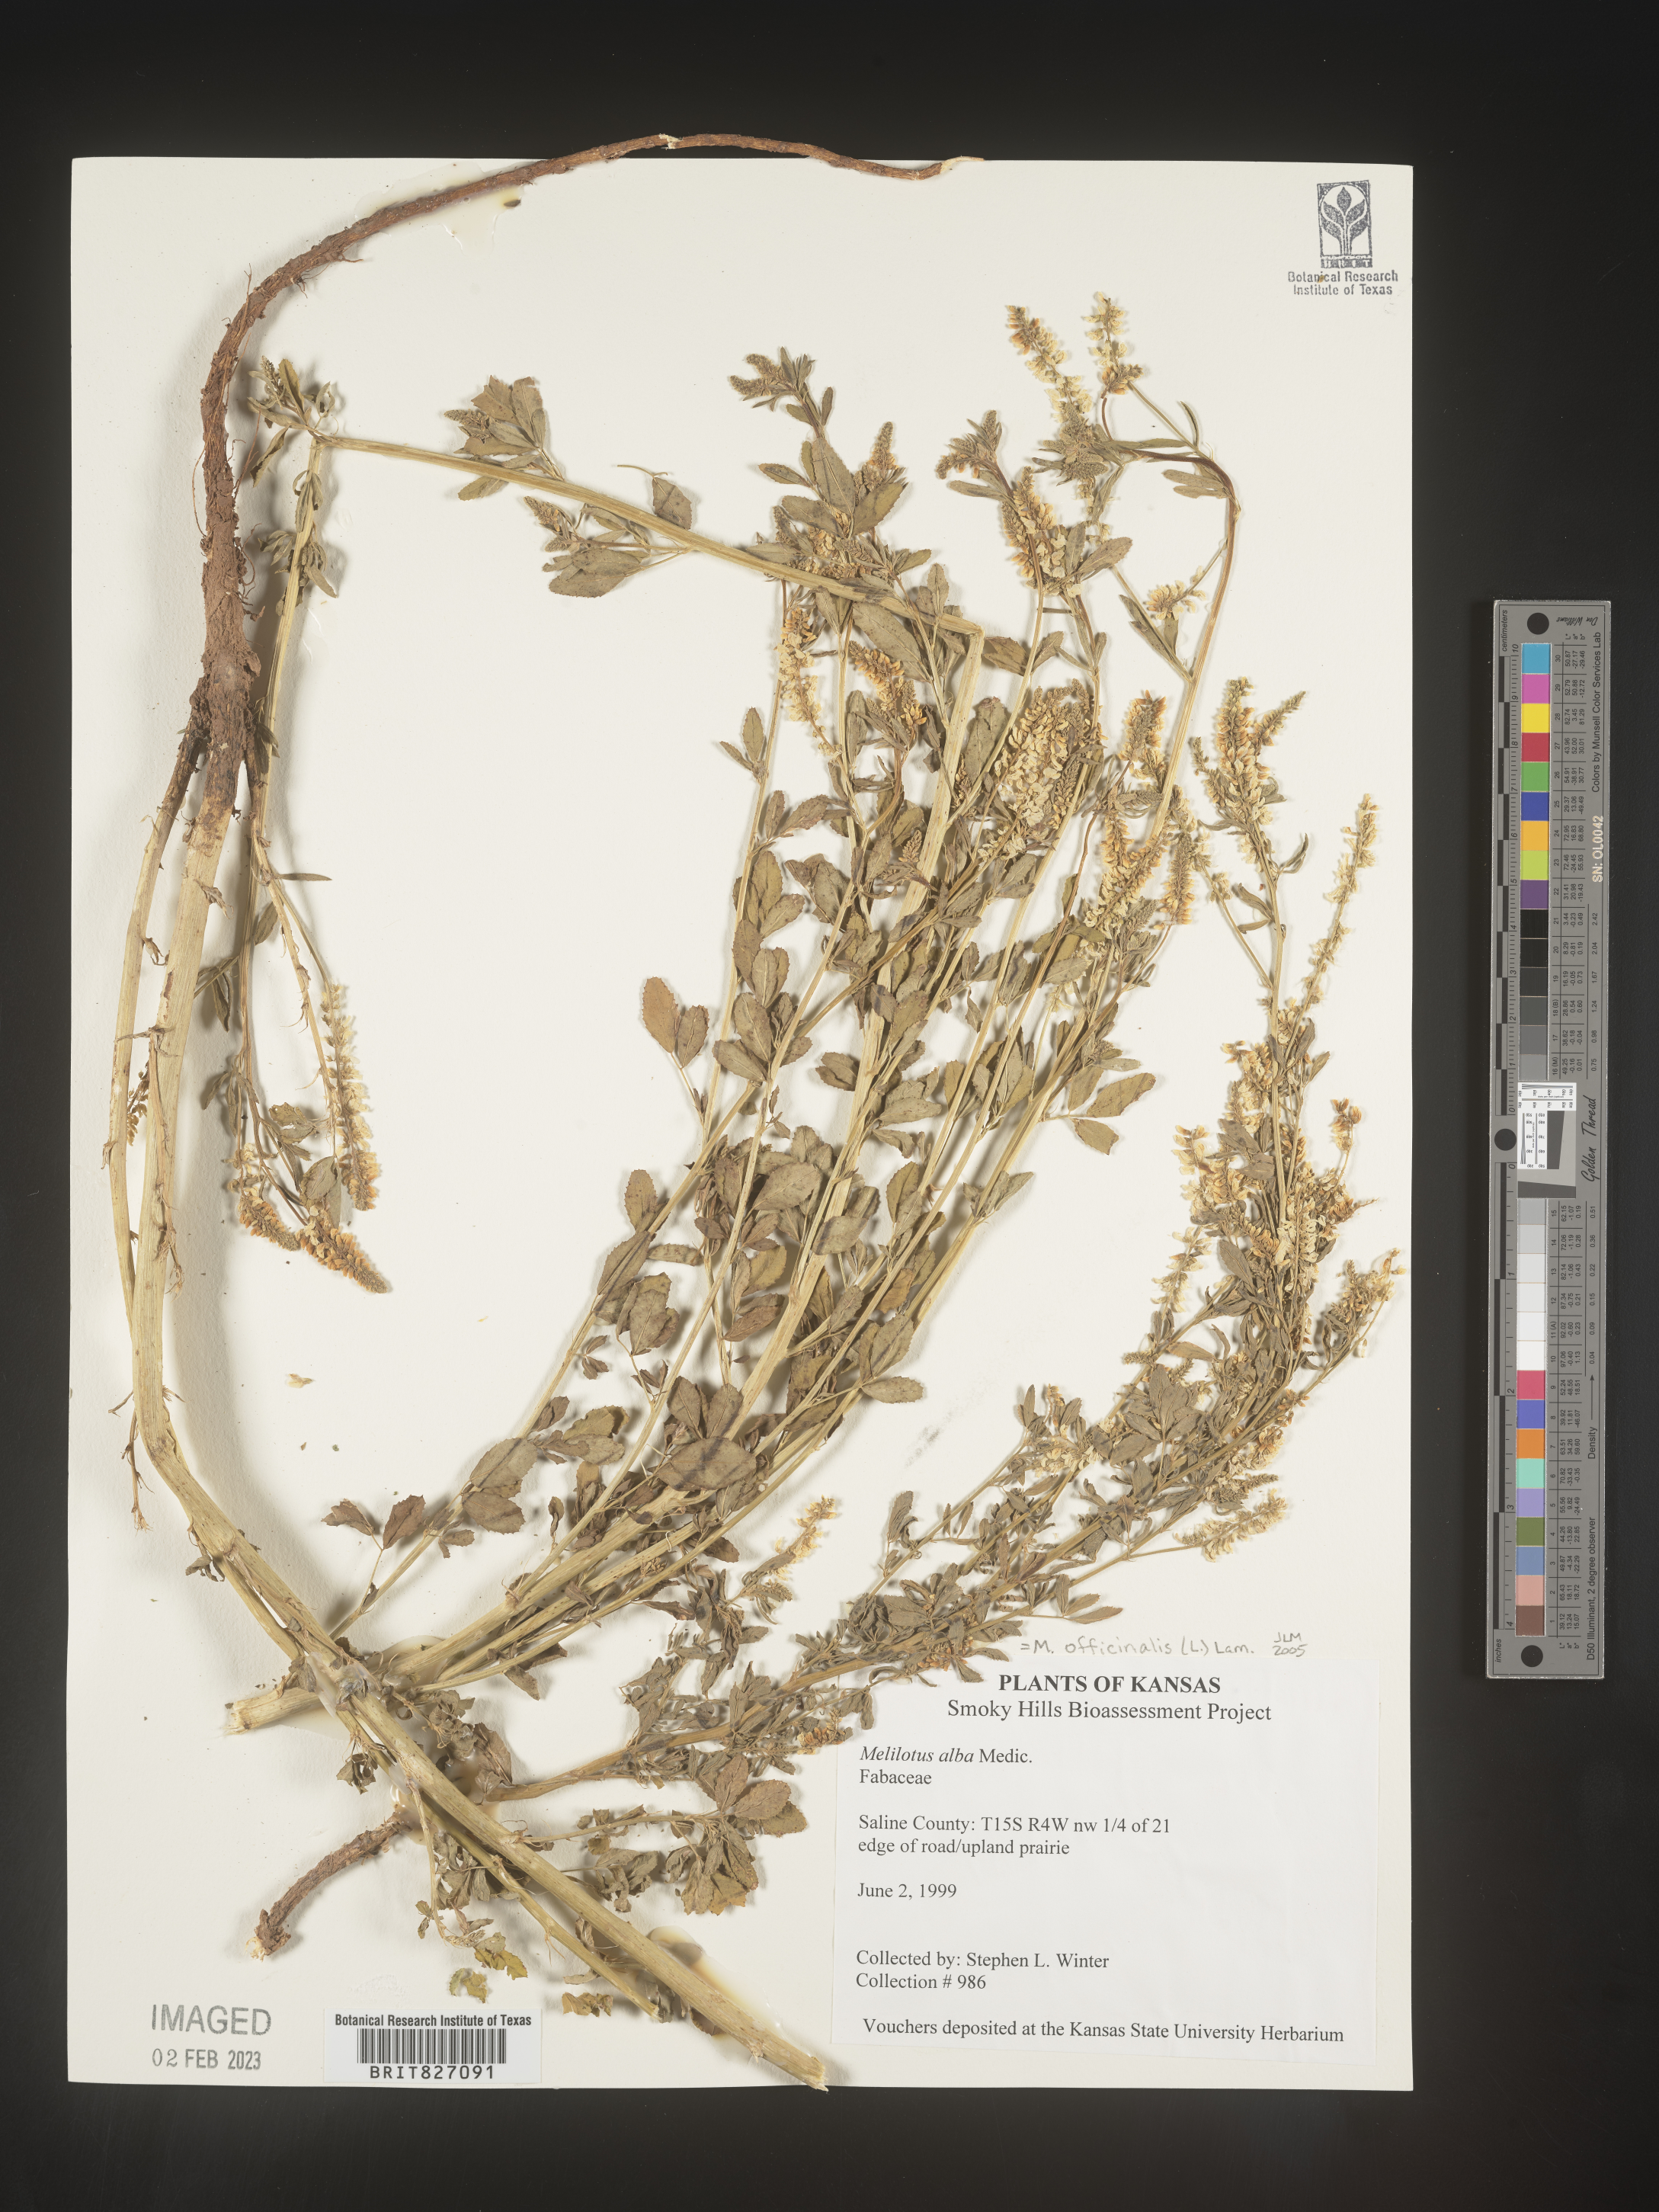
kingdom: Plantae
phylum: Tracheophyta
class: Magnoliopsida
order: Fabales
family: Fabaceae
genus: Melilotus
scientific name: Melilotus officinalis
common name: Sweetclover
